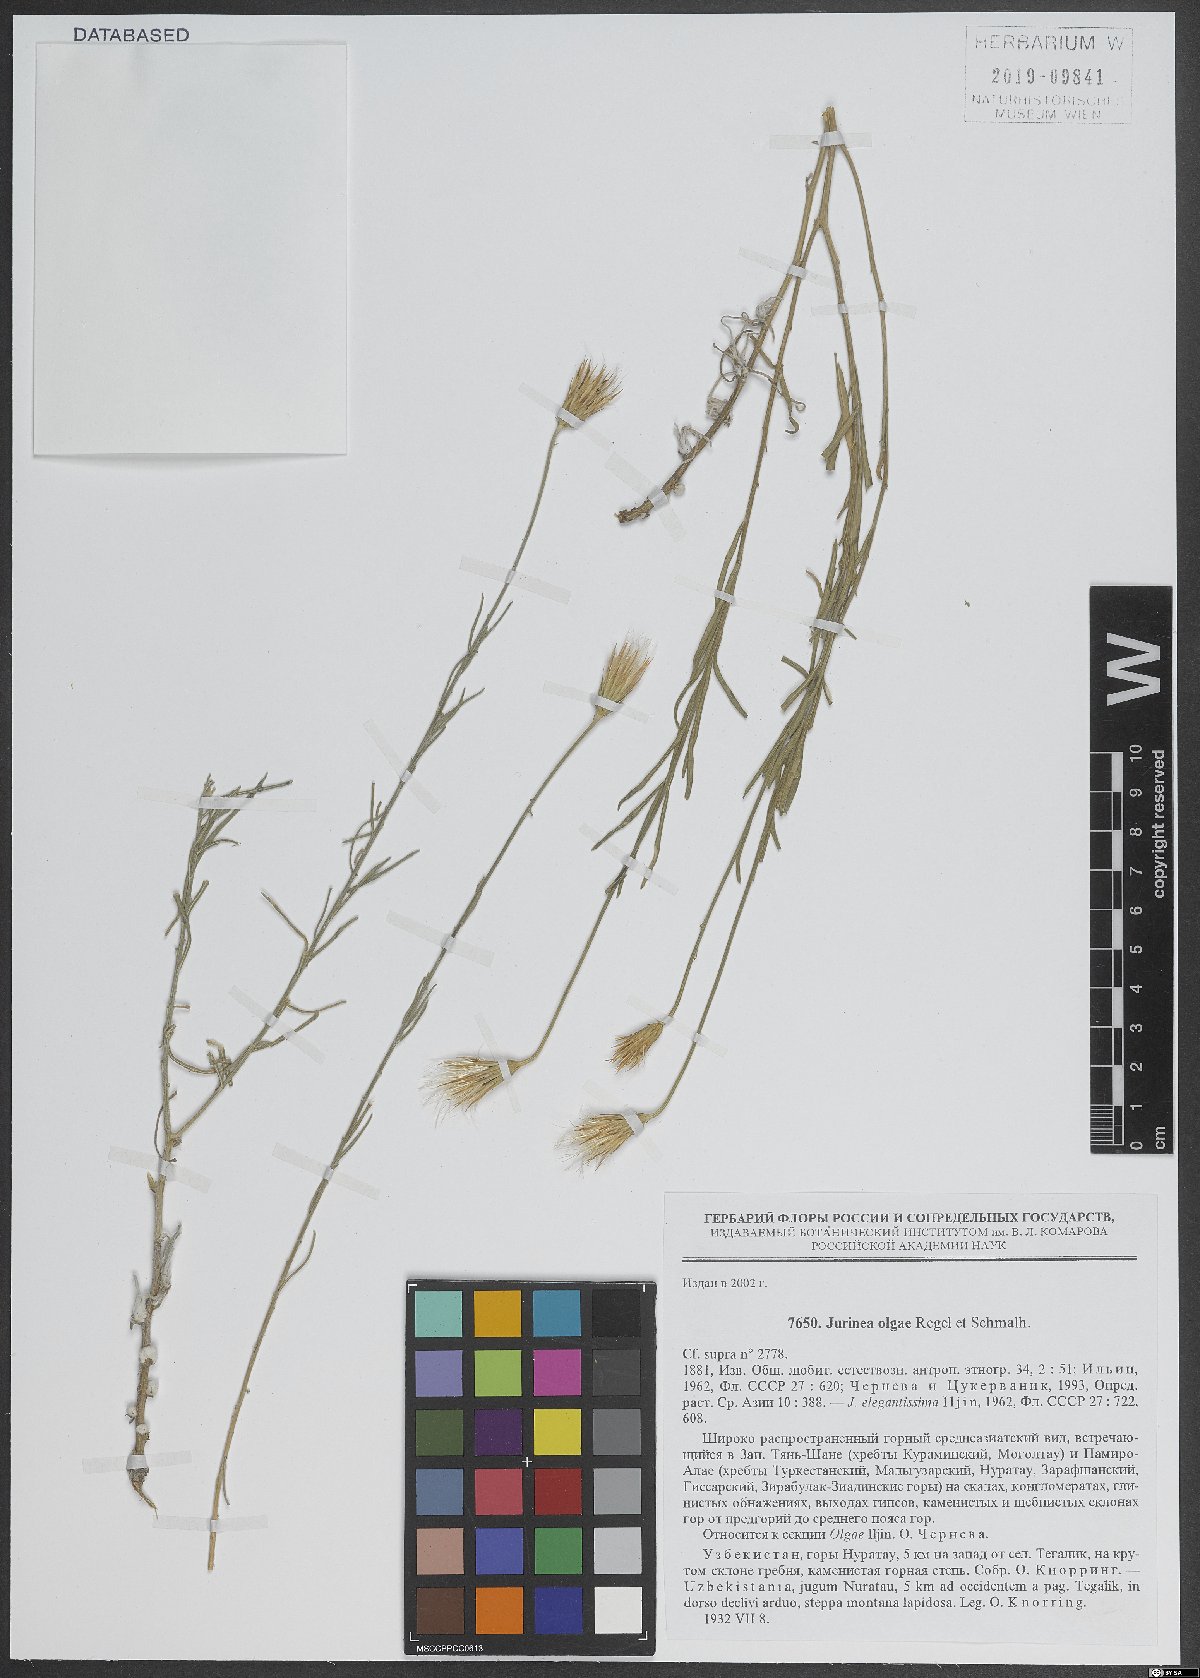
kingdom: Plantae
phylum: Tracheophyta
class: Magnoliopsida
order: Asterales
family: Asteraceae
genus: Jurinea
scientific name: Jurinea olgae
